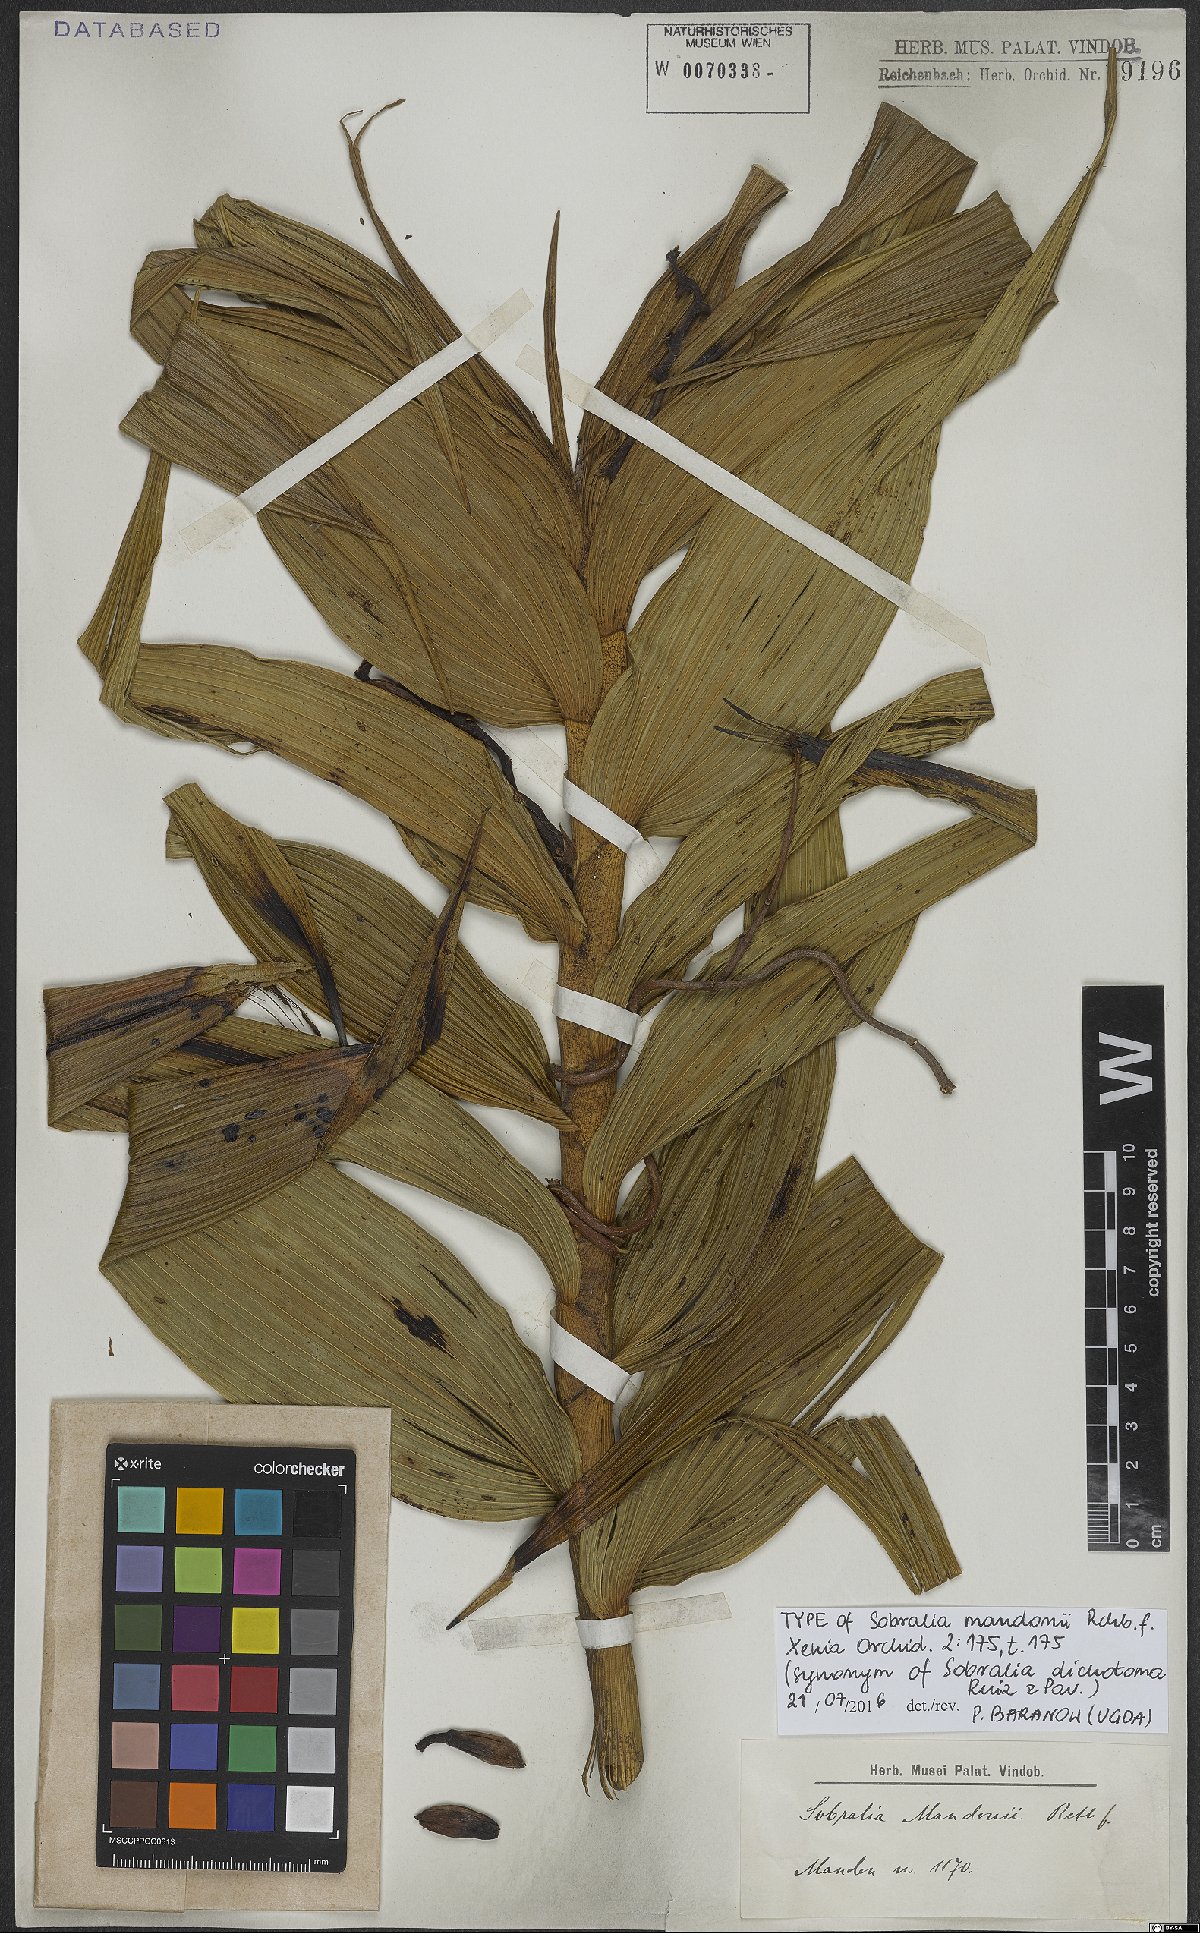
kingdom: Plantae
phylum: Tracheophyta
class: Liliopsida
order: Asparagales
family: Orchidaceae
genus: Sobralia
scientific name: Sobralia dichotoma
